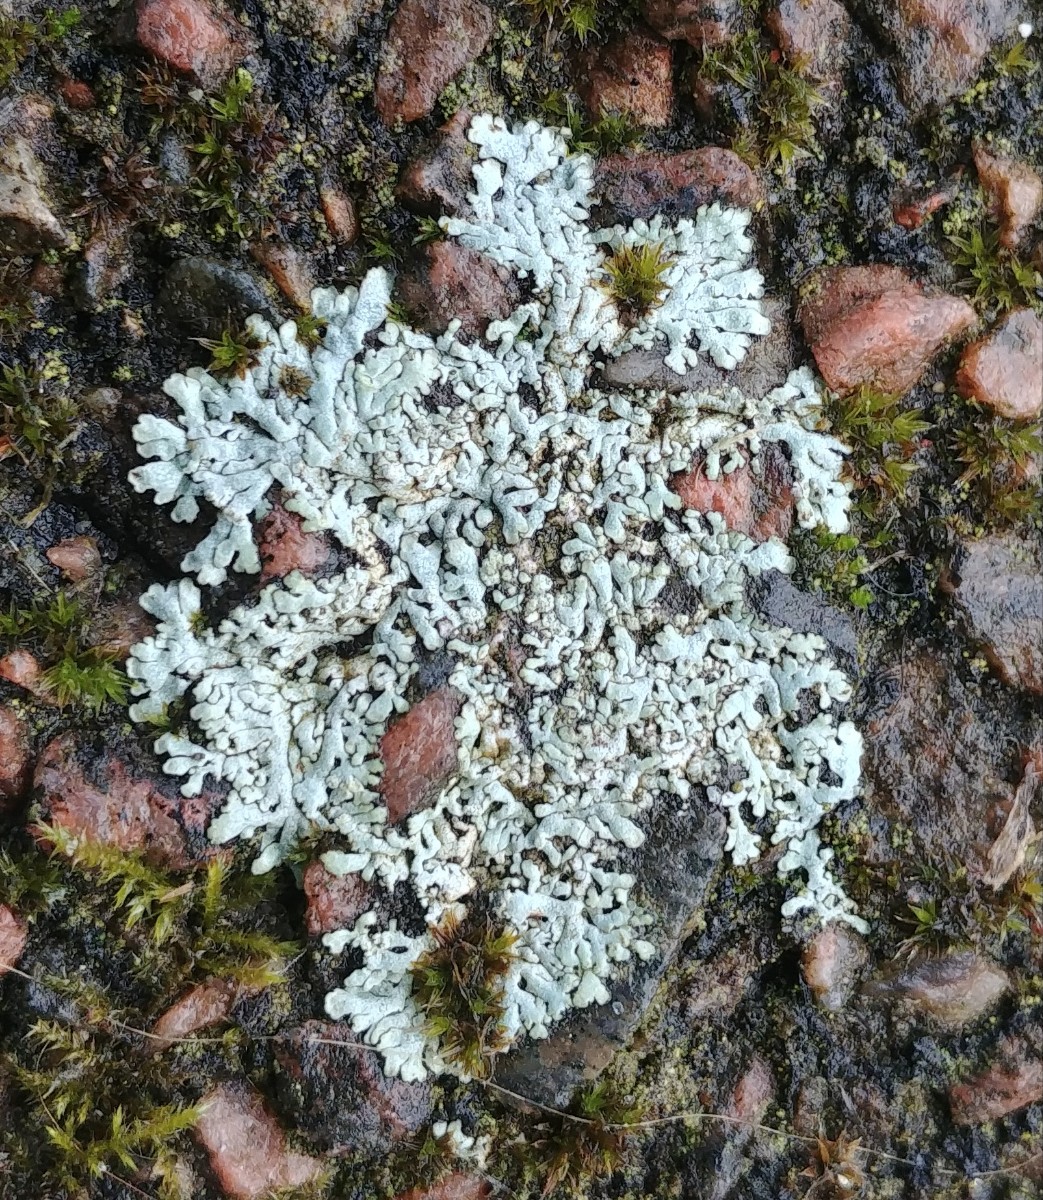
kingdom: Fungi
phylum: Ascomycota
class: Lecanoromycetes
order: Caliciales
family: Physciaceae
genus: Physcia
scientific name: Physcia caesia
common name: blågrå rosetlav
